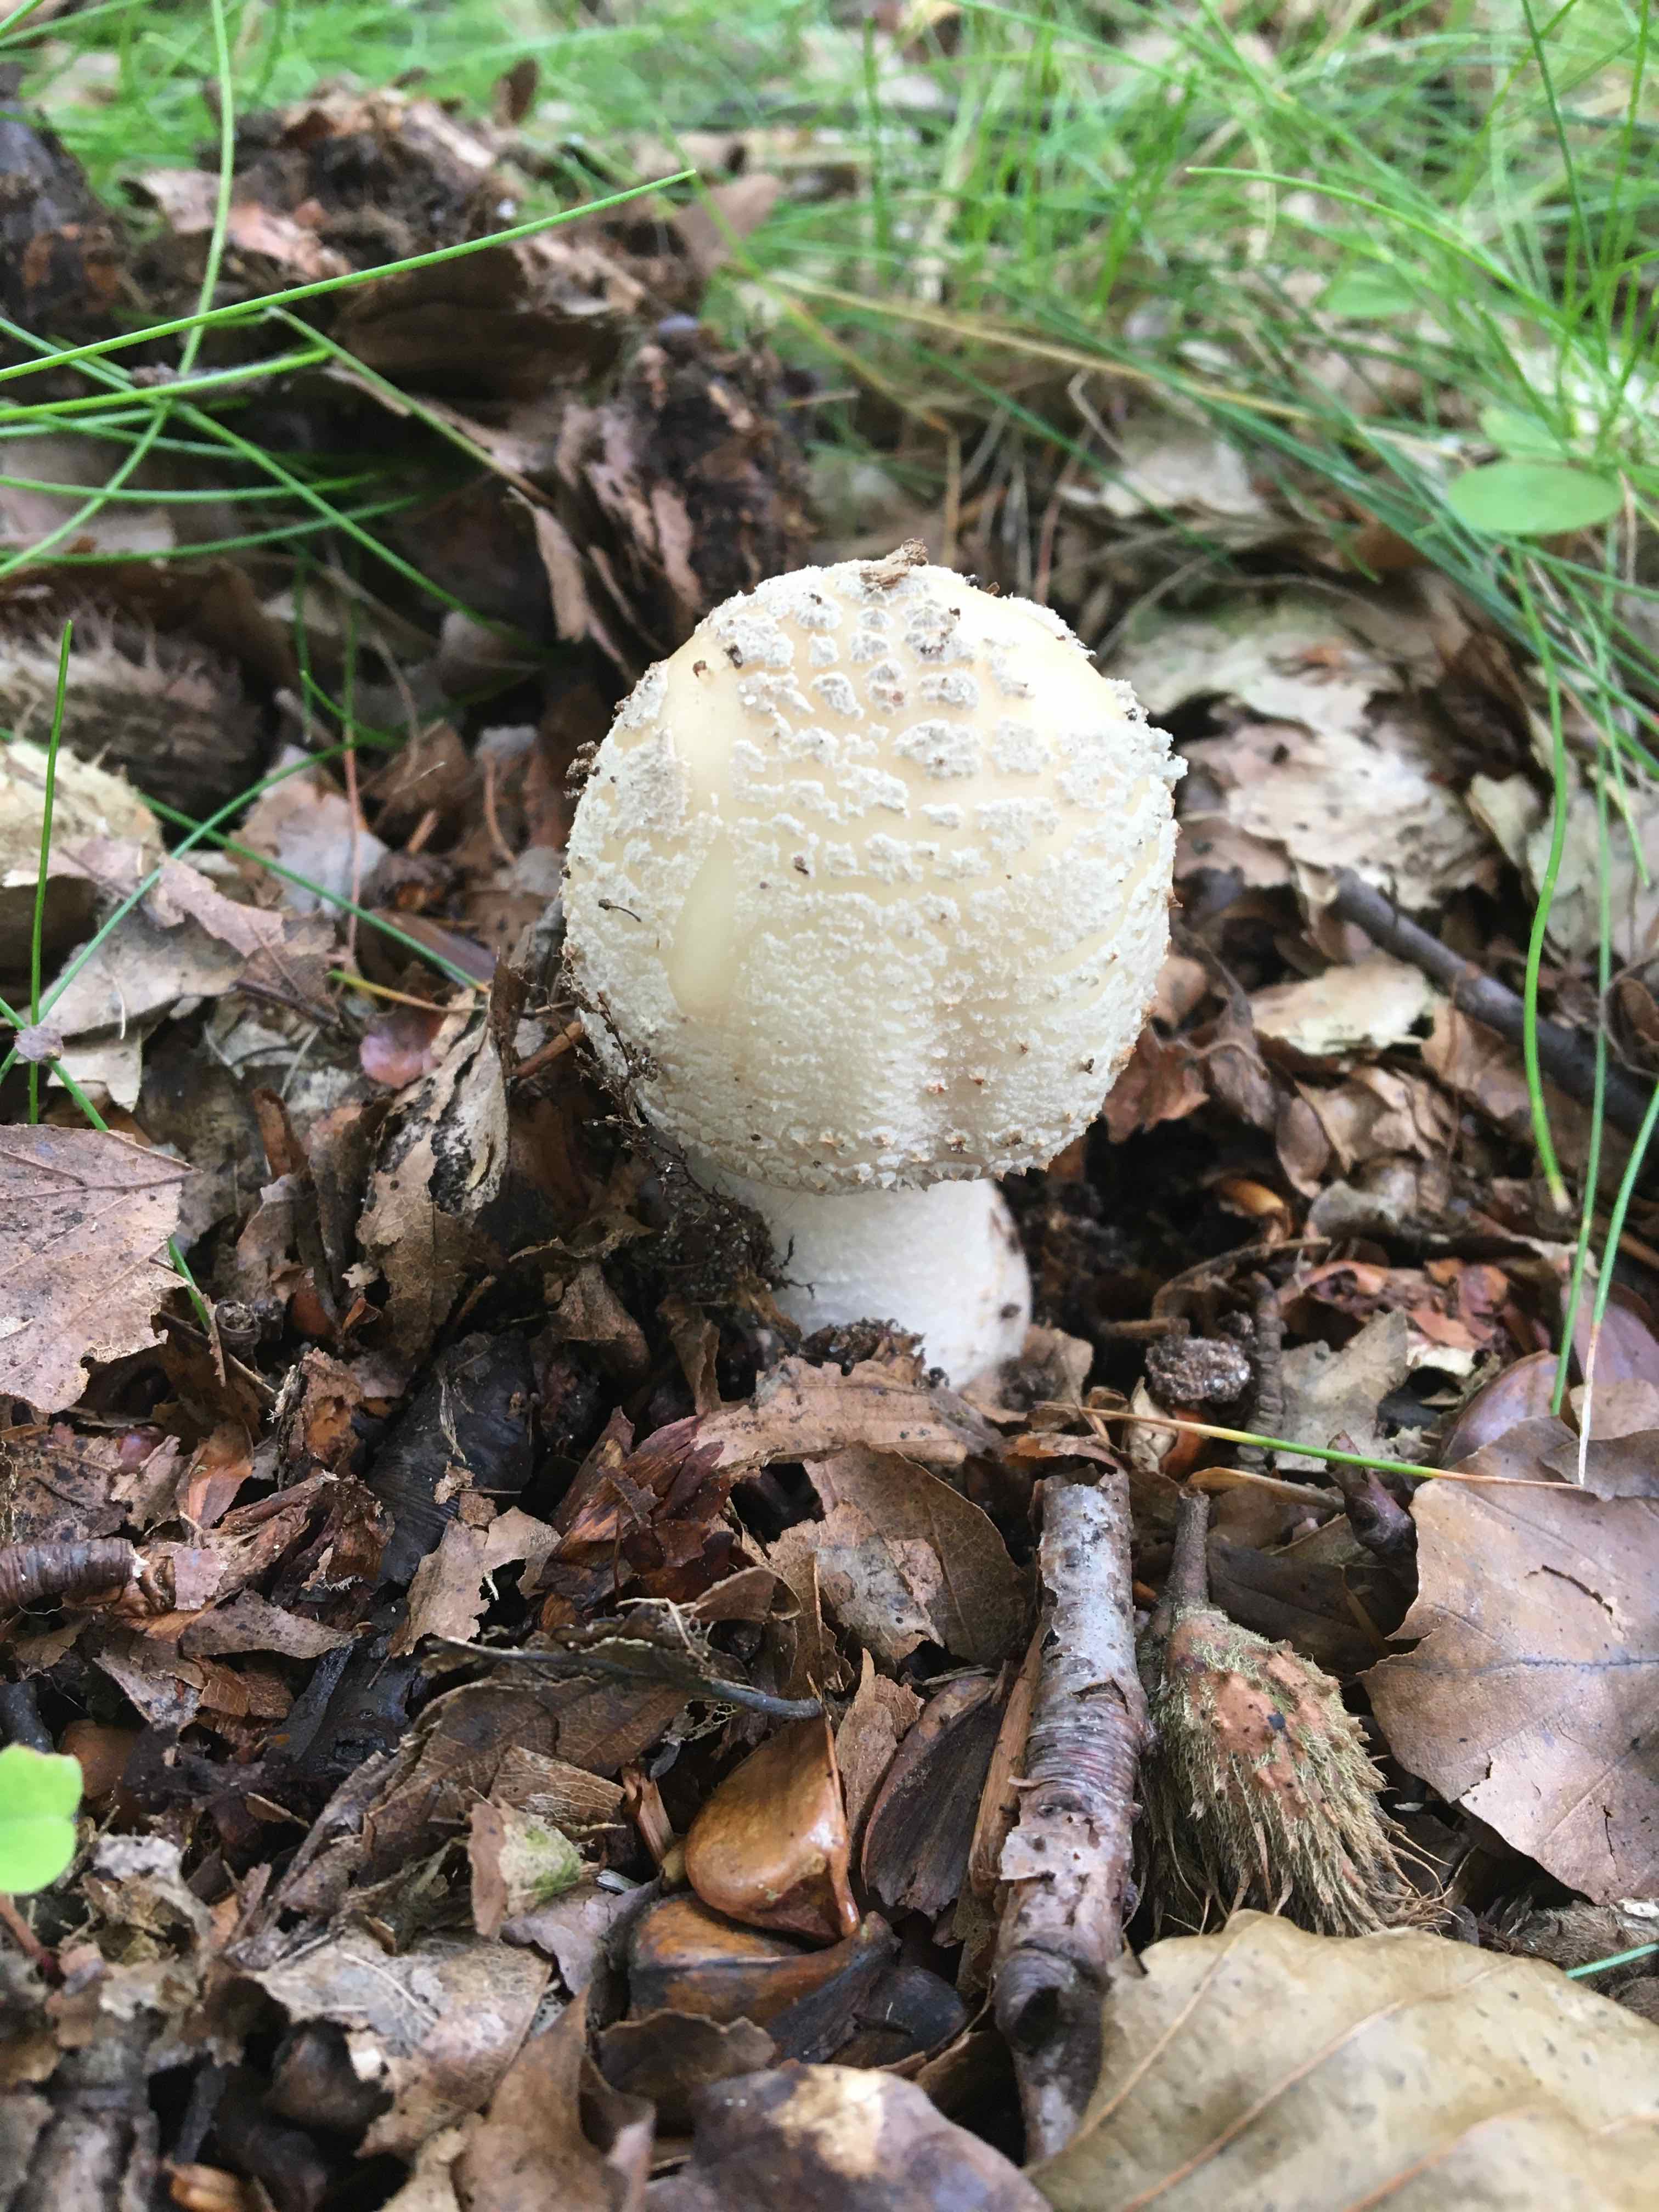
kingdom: Fungi
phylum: Basidiomycota
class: Agaricomycetes
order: Agaricales
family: Amanitaceae
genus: Amanita
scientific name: Amanita rubescens
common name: rødmende fluesvamp
